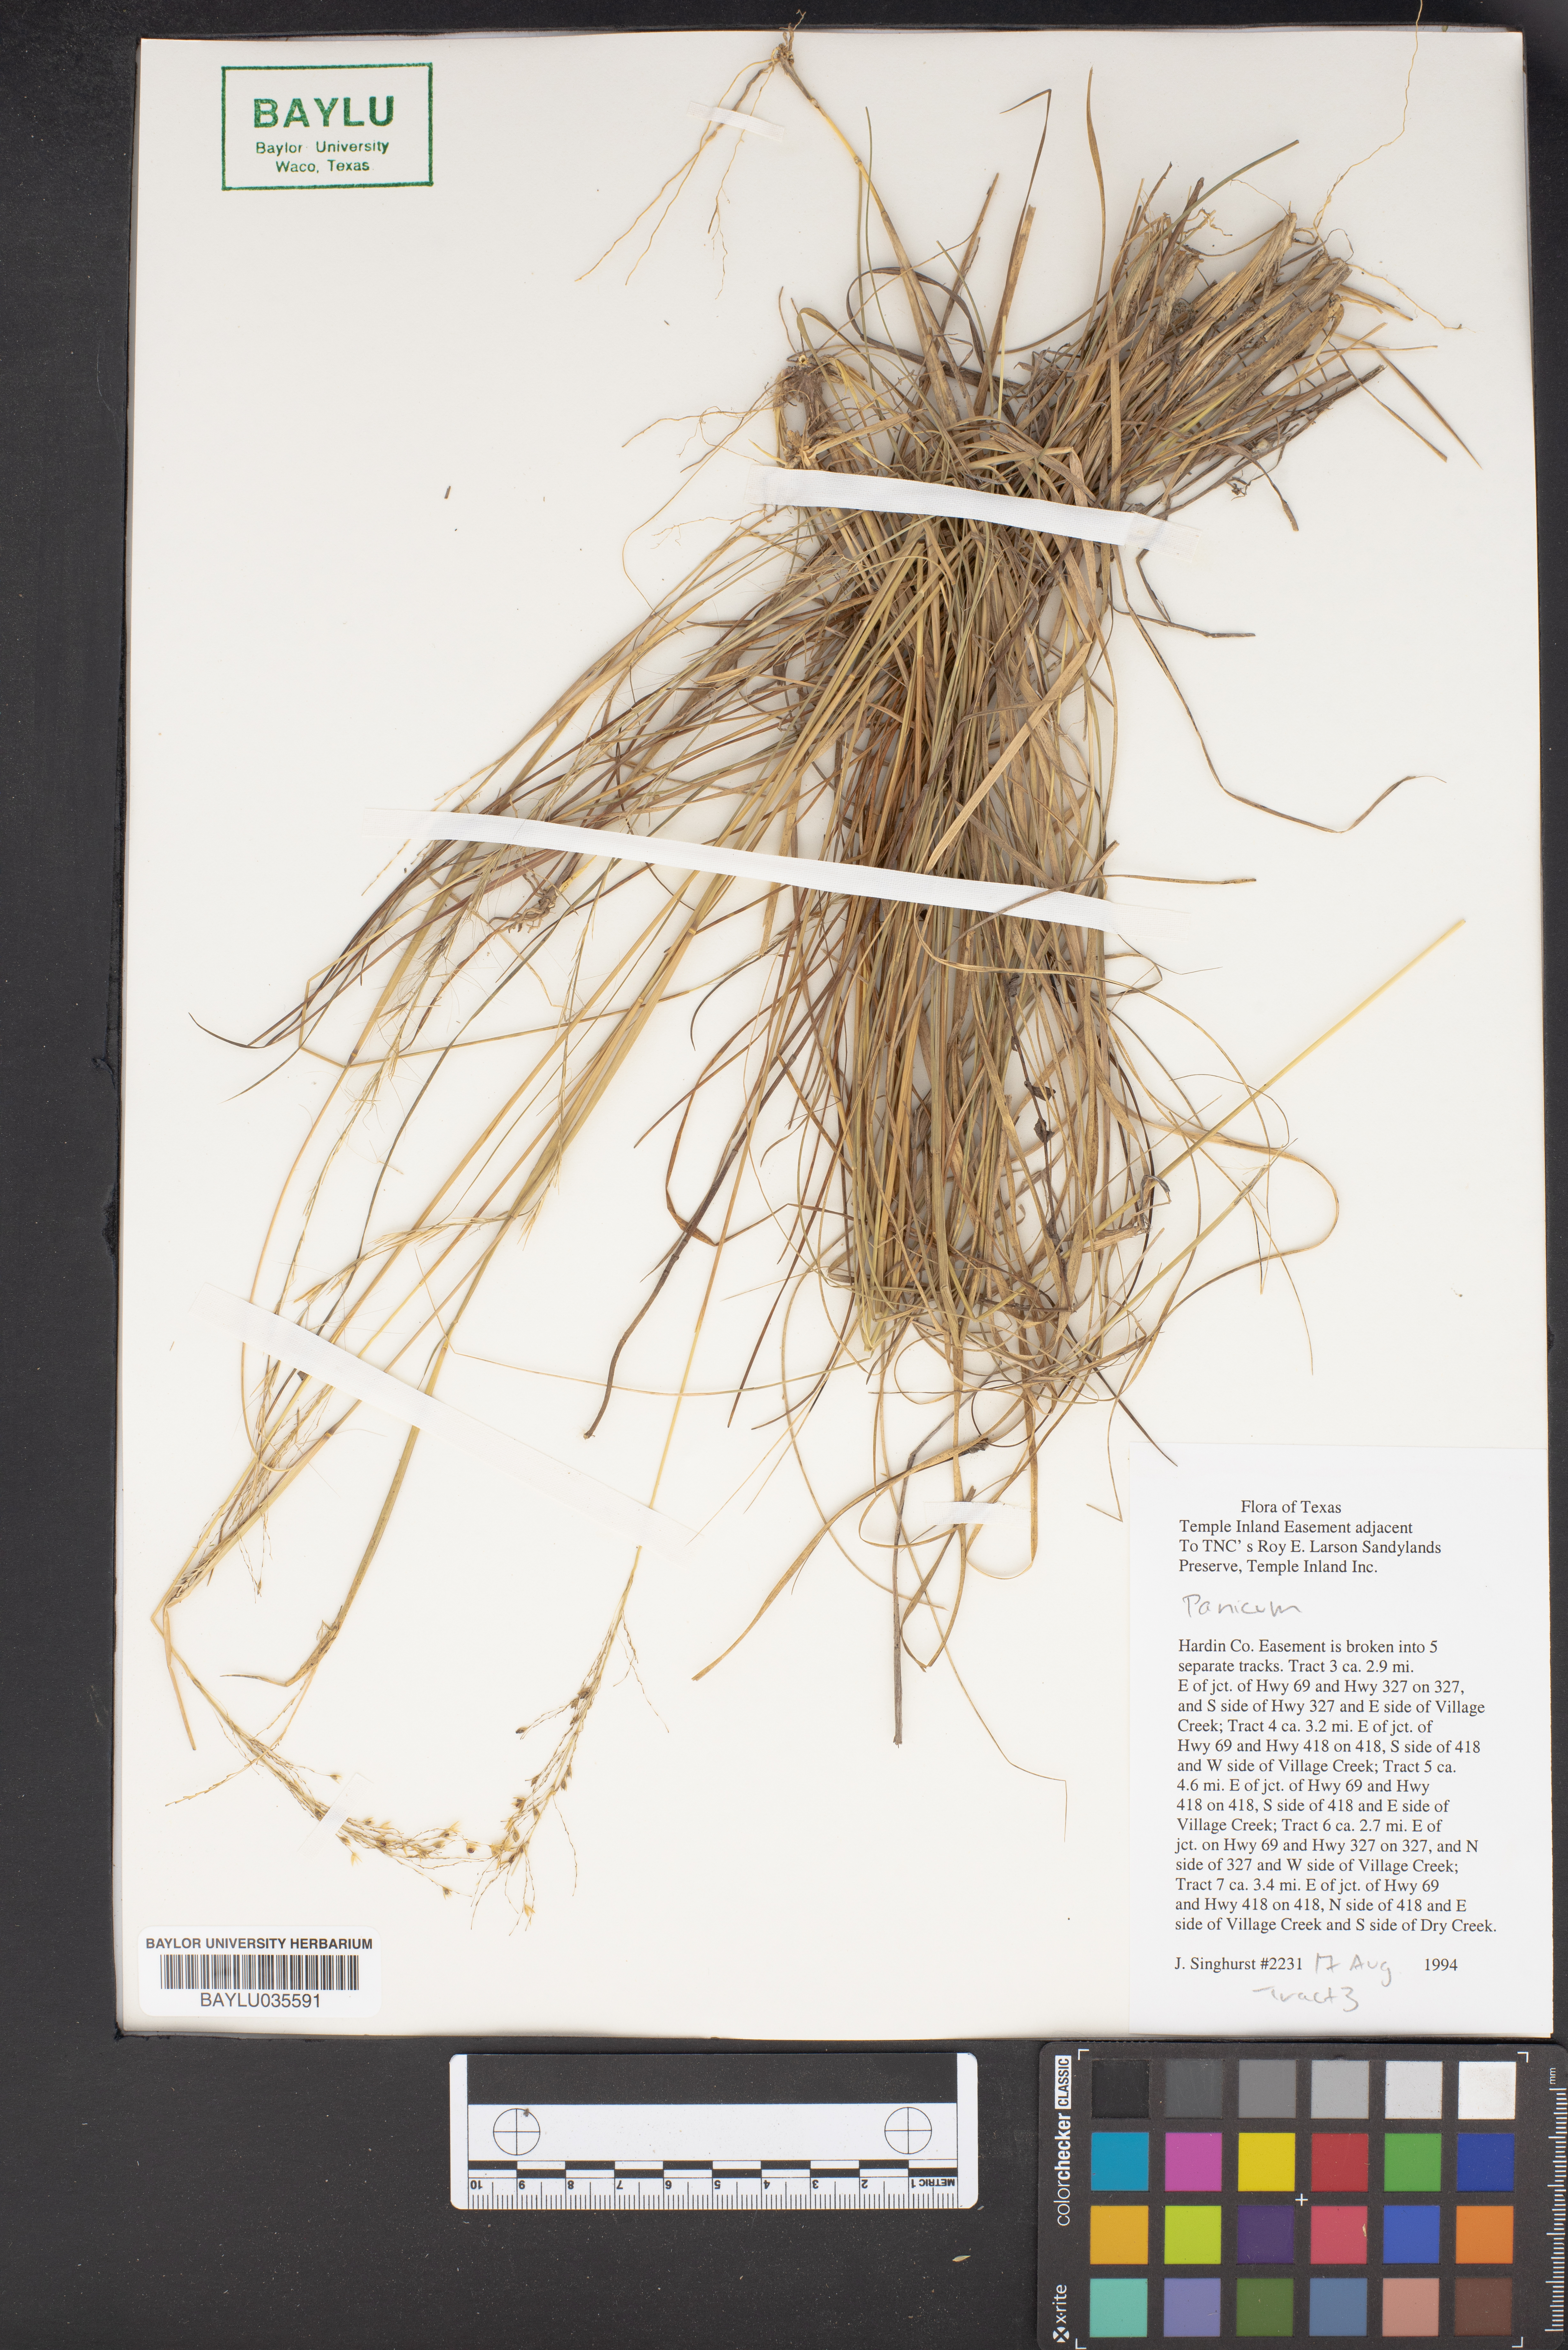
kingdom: Plantae
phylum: Tracheophyta
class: Liliopsida
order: Poales
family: Poaceae
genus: Panicum
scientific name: Panicum
